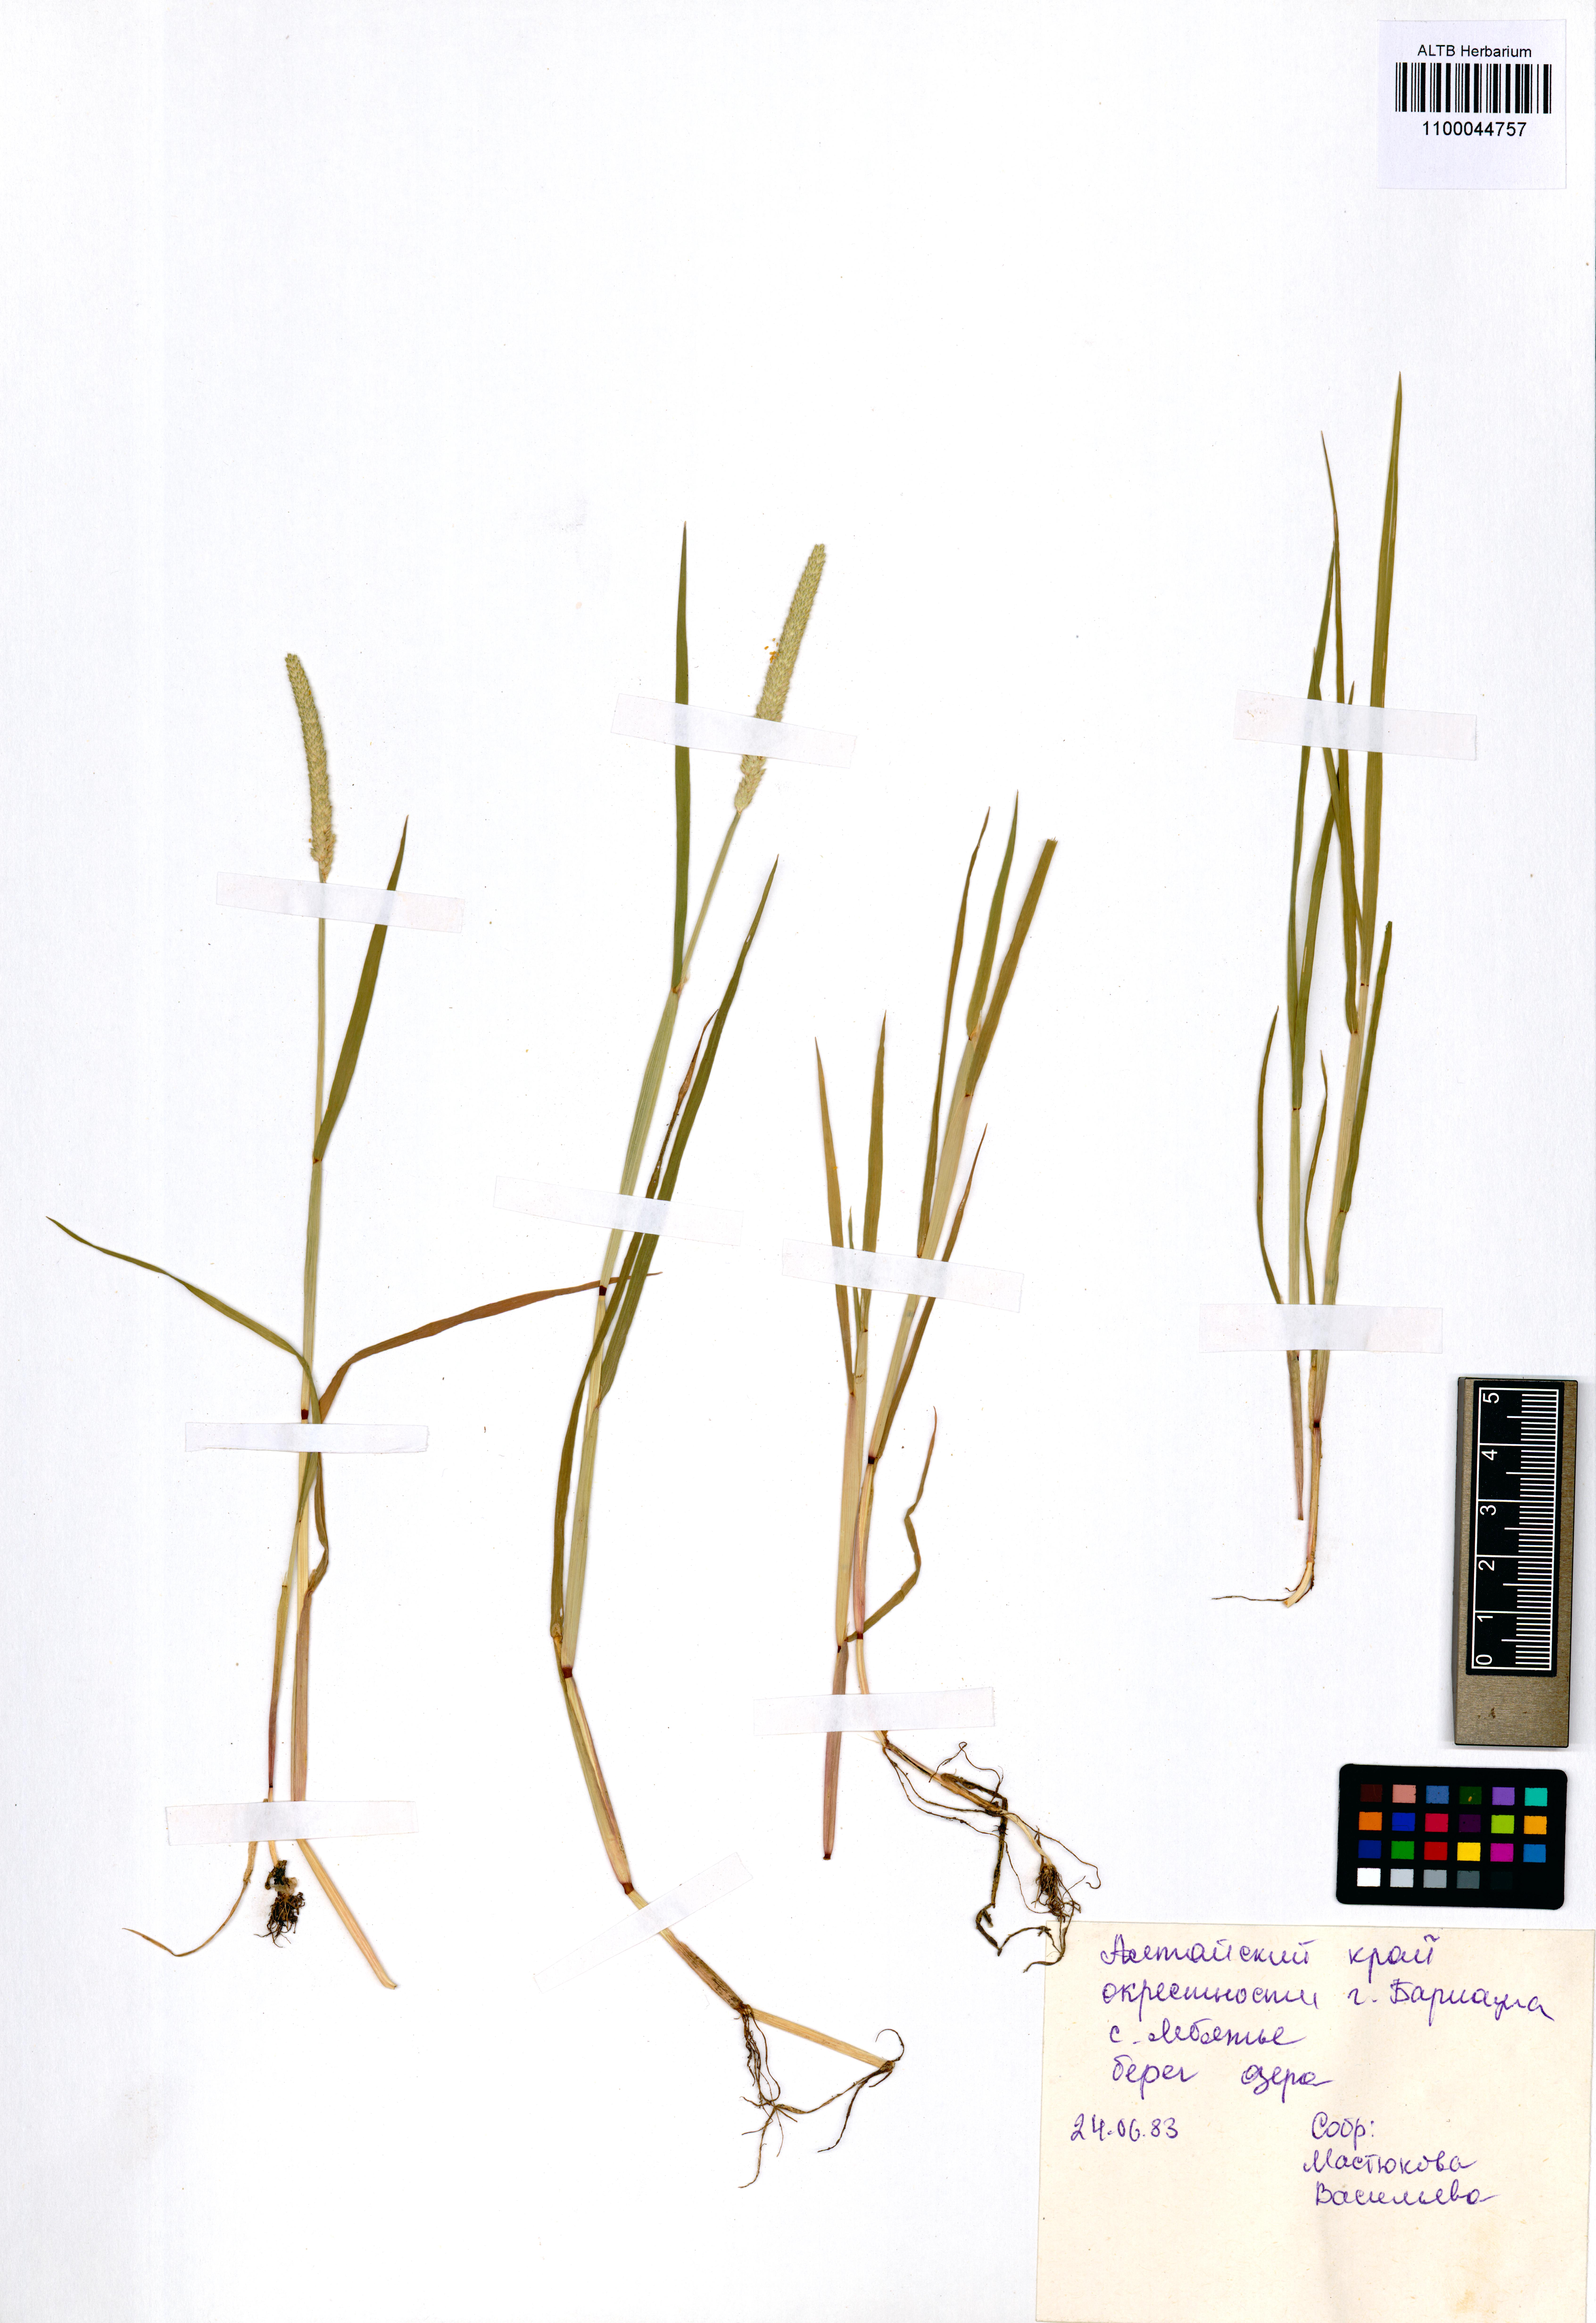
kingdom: Plantae
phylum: Tracheophyta
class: Liliopsida
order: Poales
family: Poaceae
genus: Alopecurus
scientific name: Alopecurus aequalis
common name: Orange foxtail
